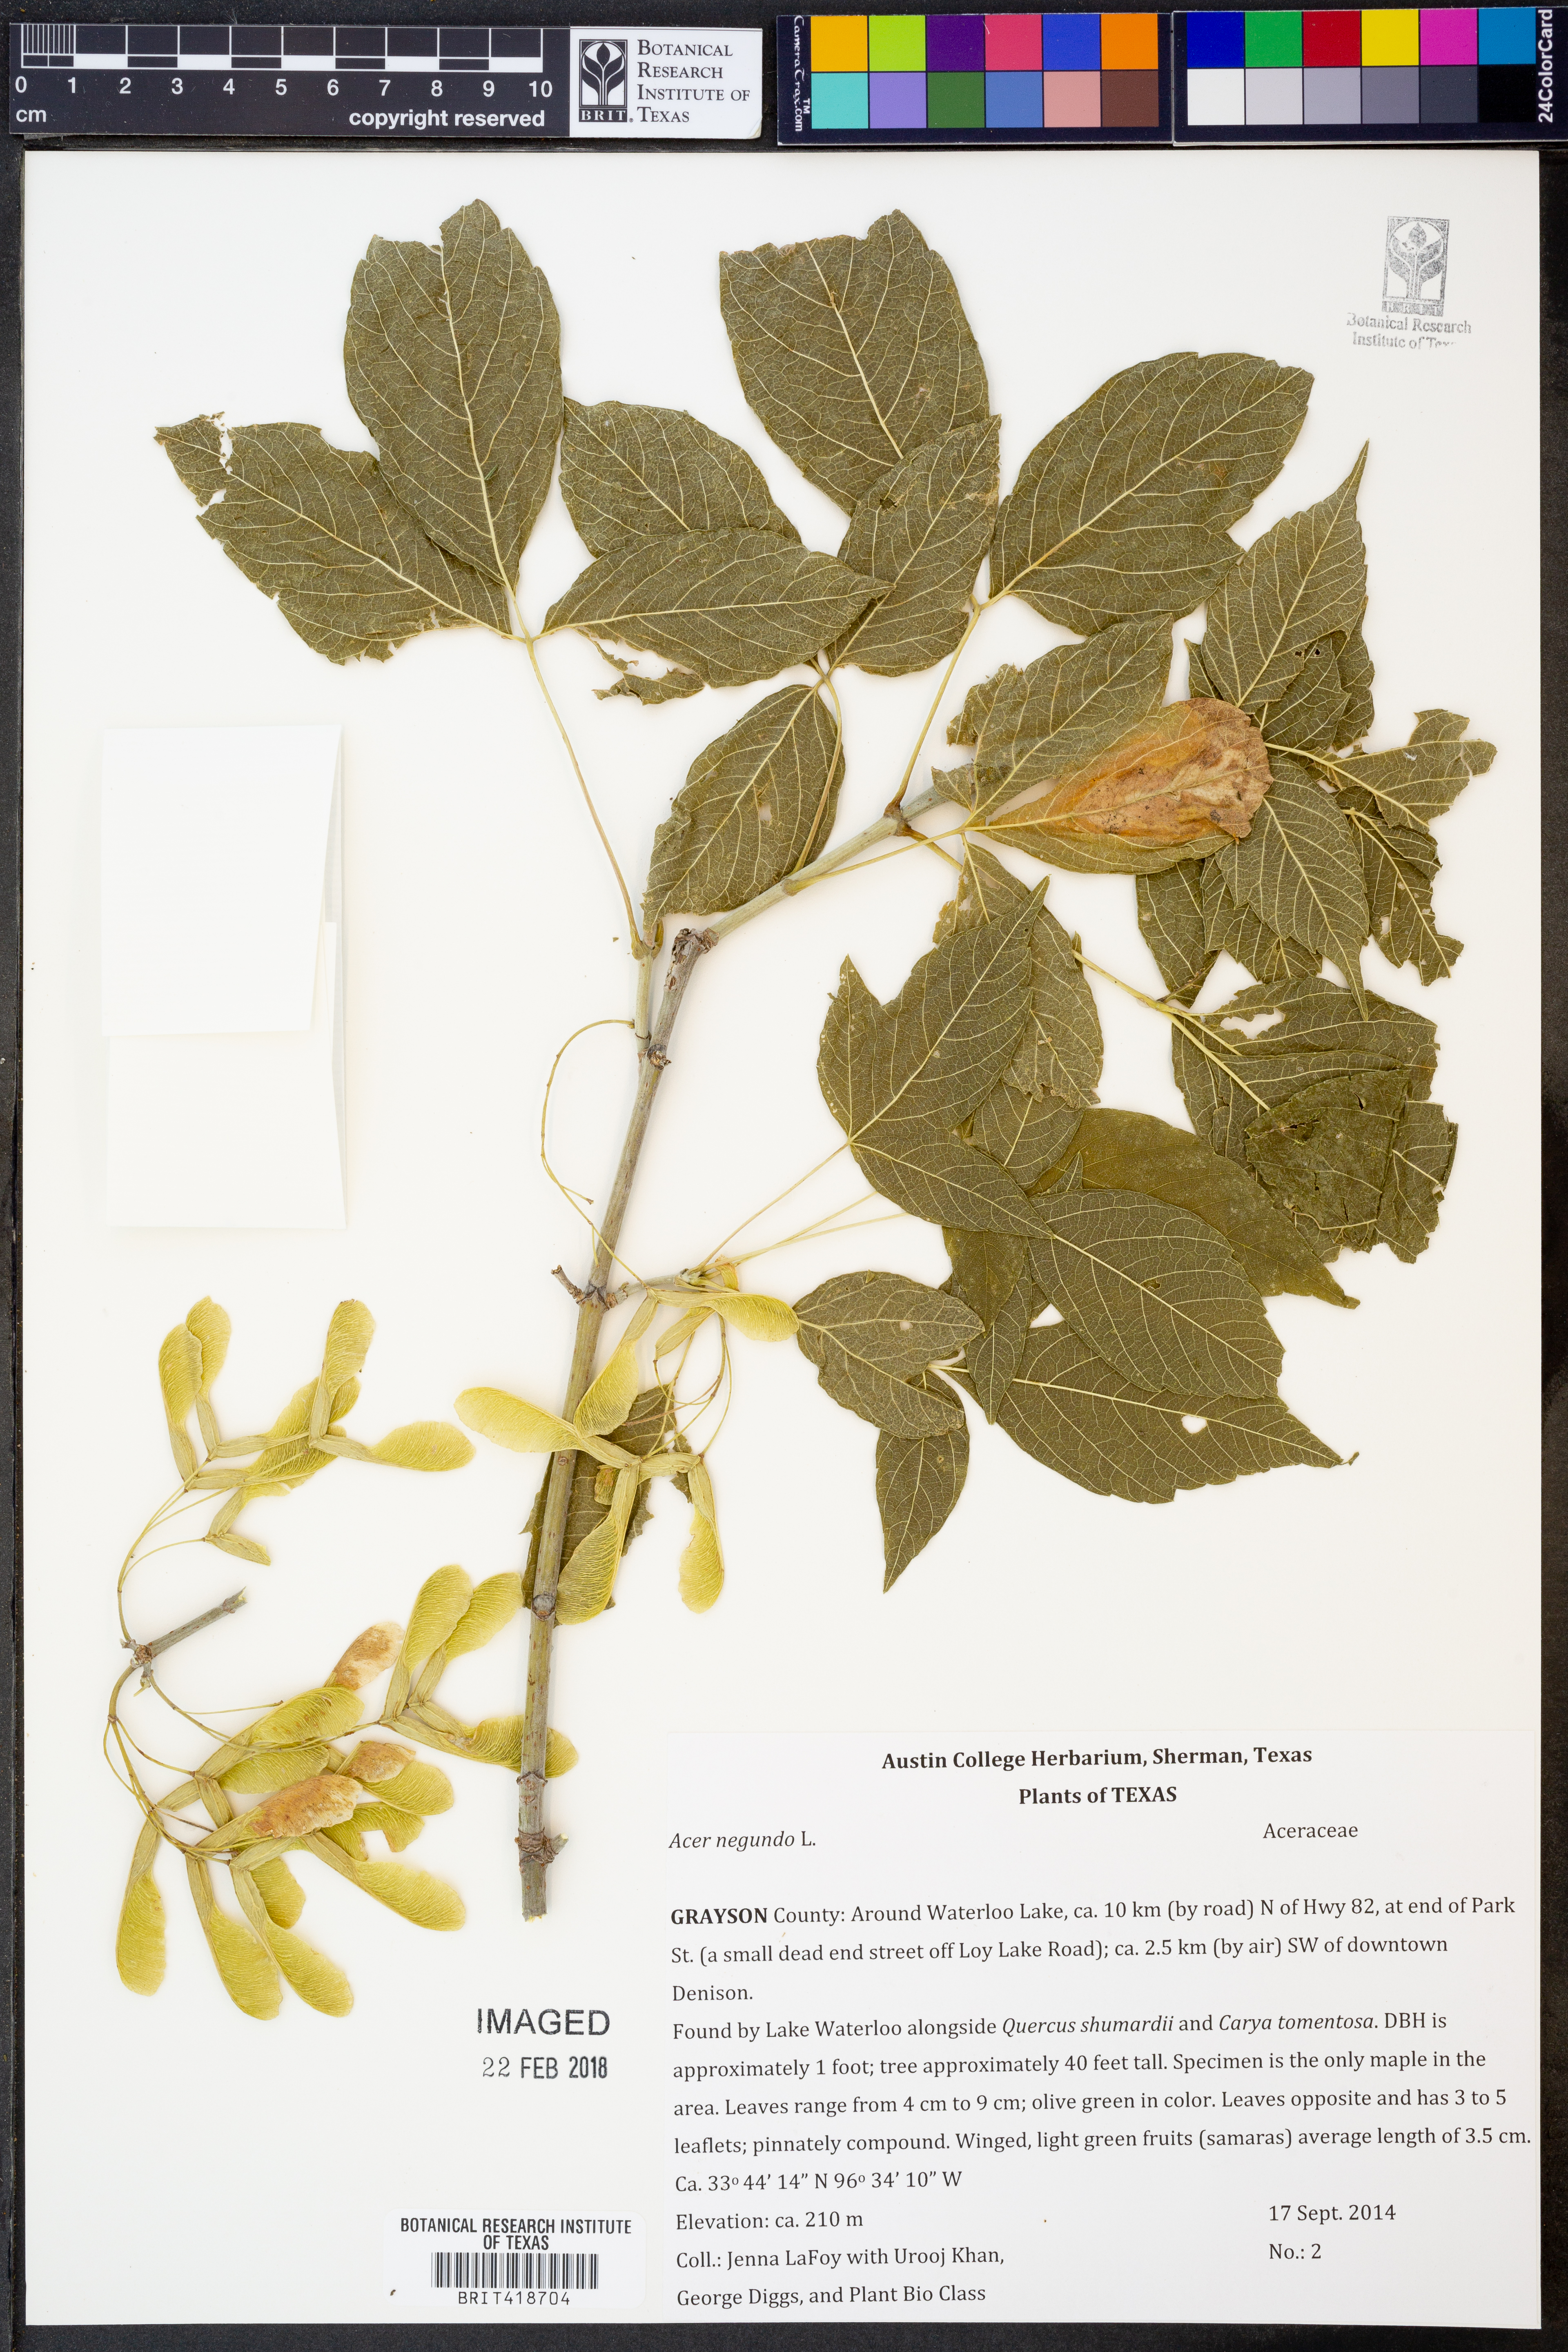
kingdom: Plantae
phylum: Tracheophyta
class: Magnoliopsida
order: Sapindales
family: Sapindaceae
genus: Acer
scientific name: Acer negundo
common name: Ashleaf maple
